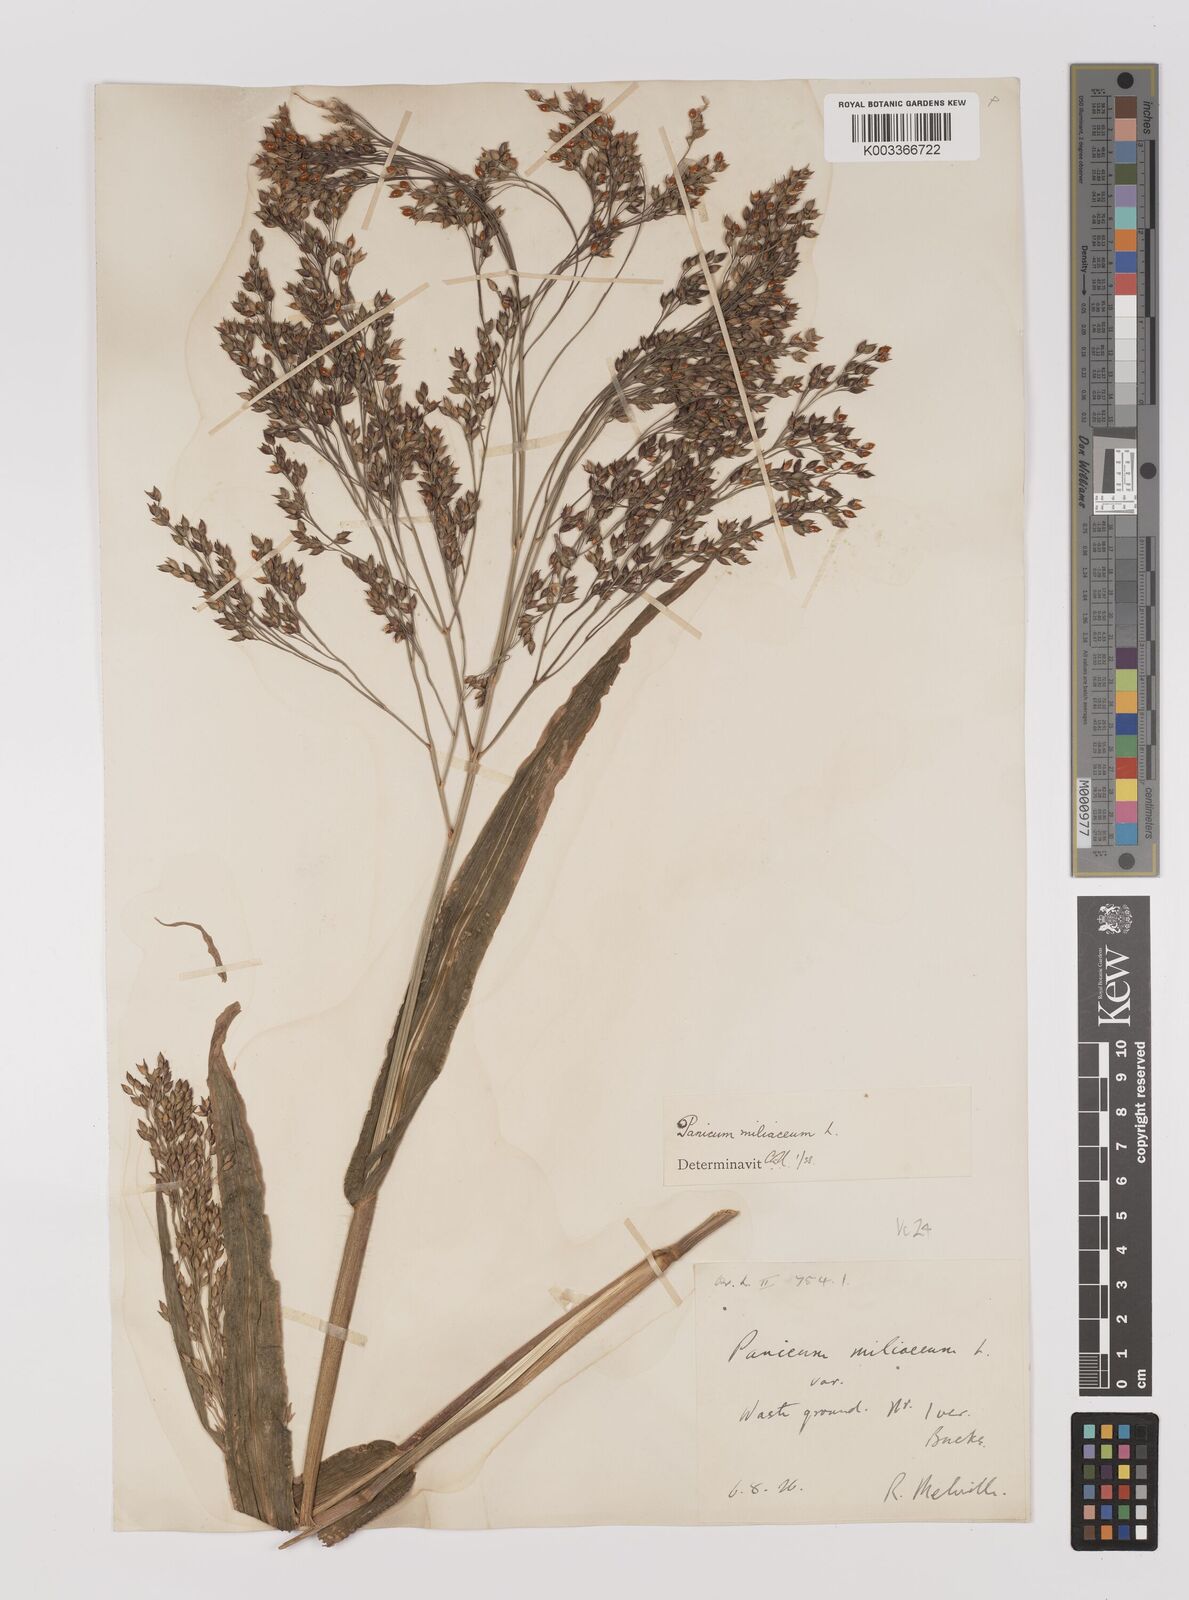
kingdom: Plantae
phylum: Tracheophyta
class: Liliopsida
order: Poales
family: Poaceae
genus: Panicum
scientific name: Panicum miliaceum
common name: Common millet
